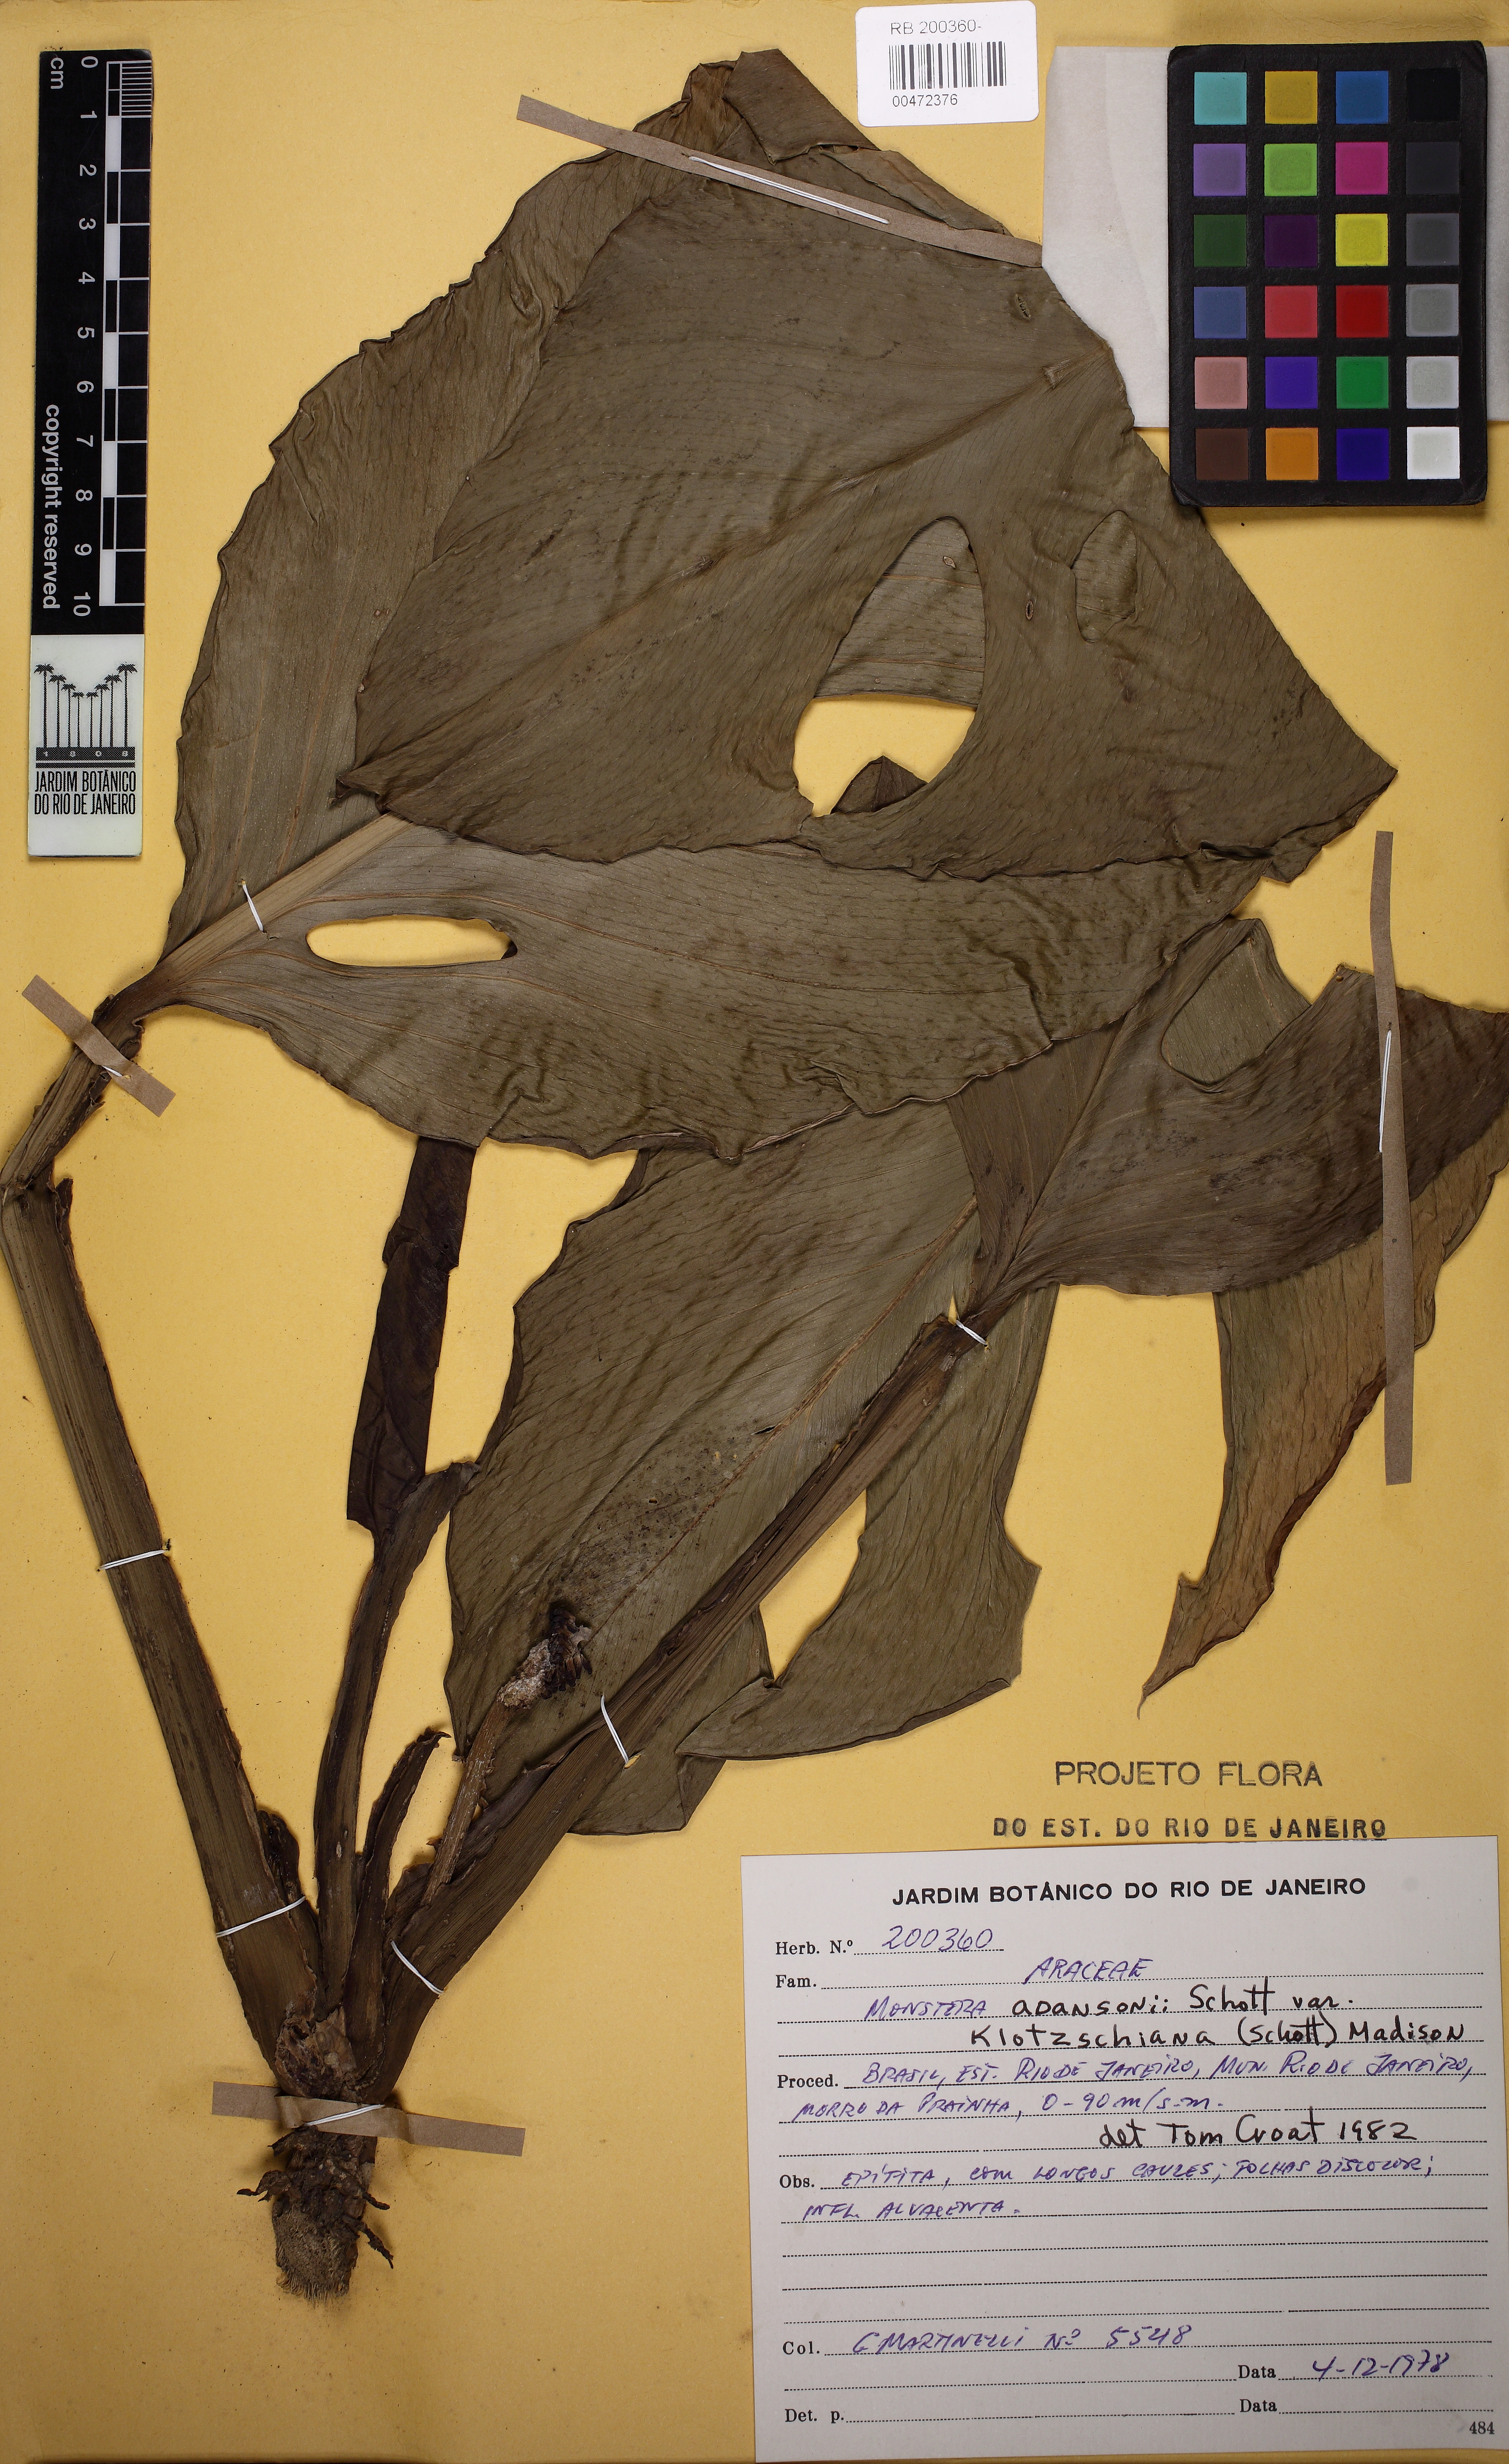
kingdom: Plantae
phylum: Tracheophyta
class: Liliopsida
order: Alismatales
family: Araceae
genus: Monstera
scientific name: Monstera adansonii
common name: Tarovine
